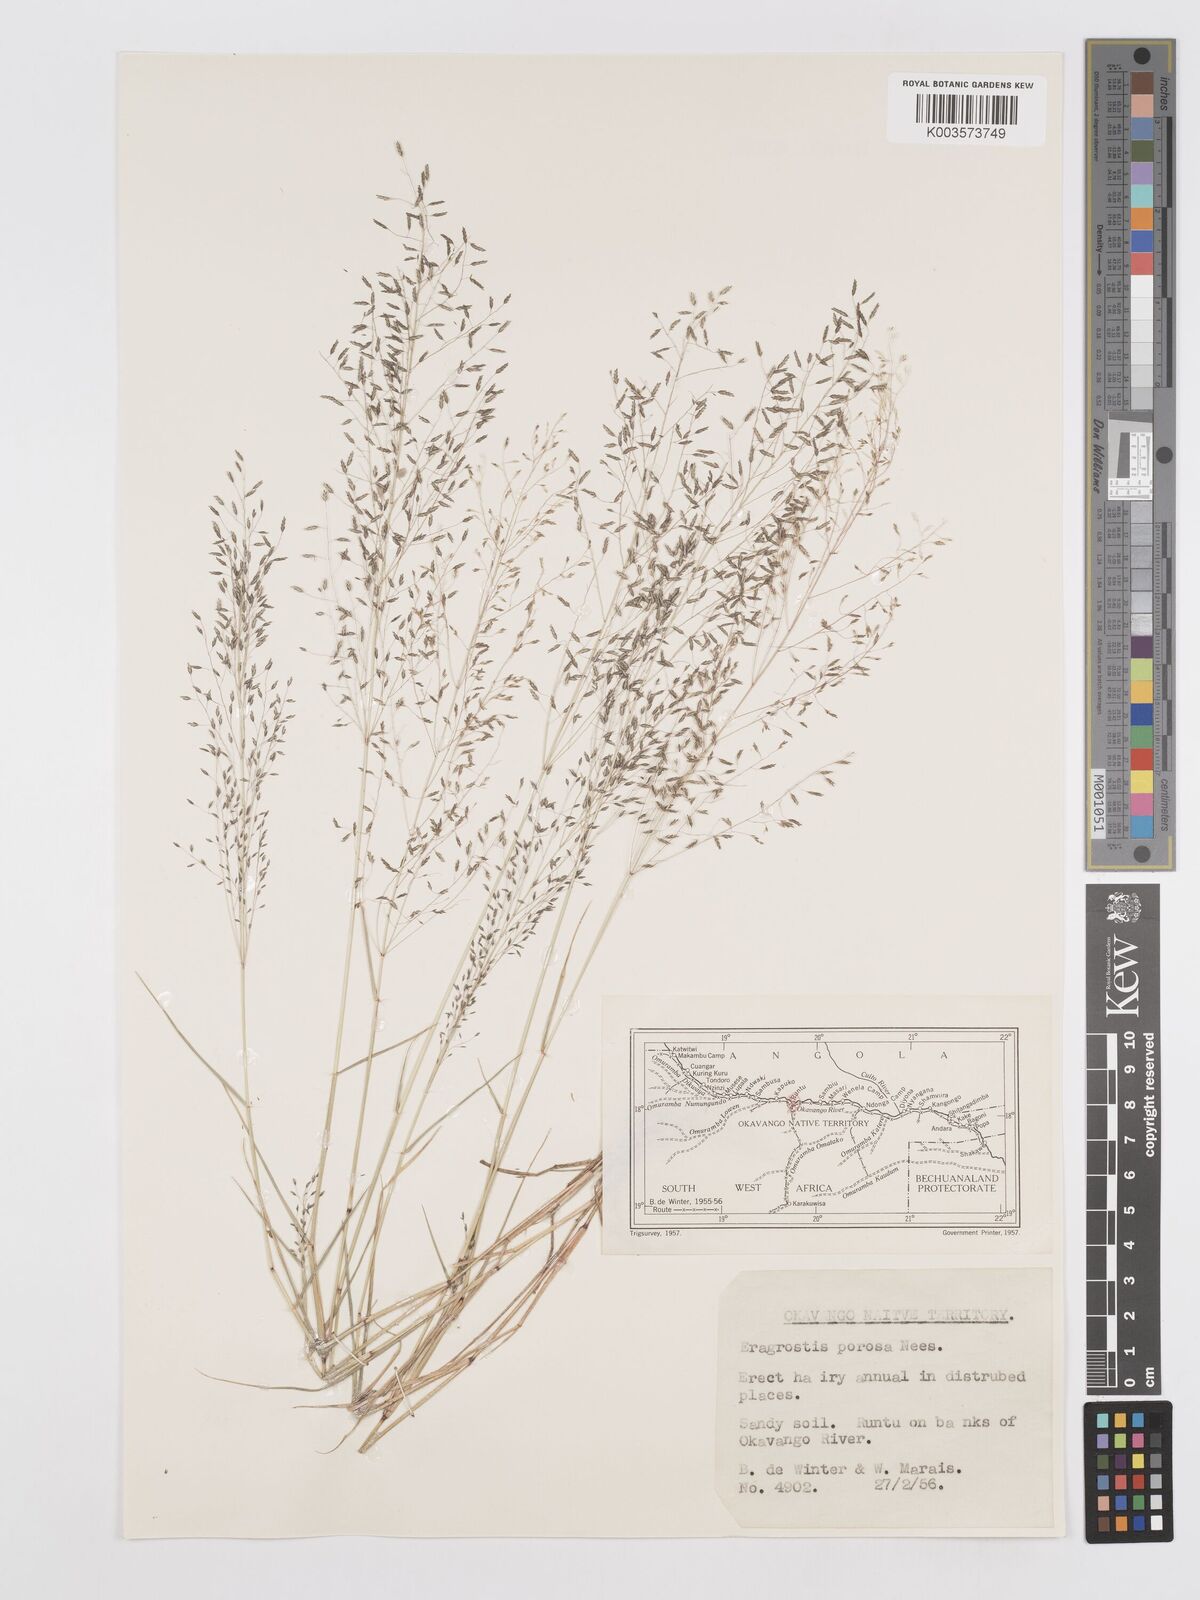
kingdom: Plantae
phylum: Tracheophyta
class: Liliopsida
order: Poales
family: Poaceae
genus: Eragrostis
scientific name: Eragrostis porosa
